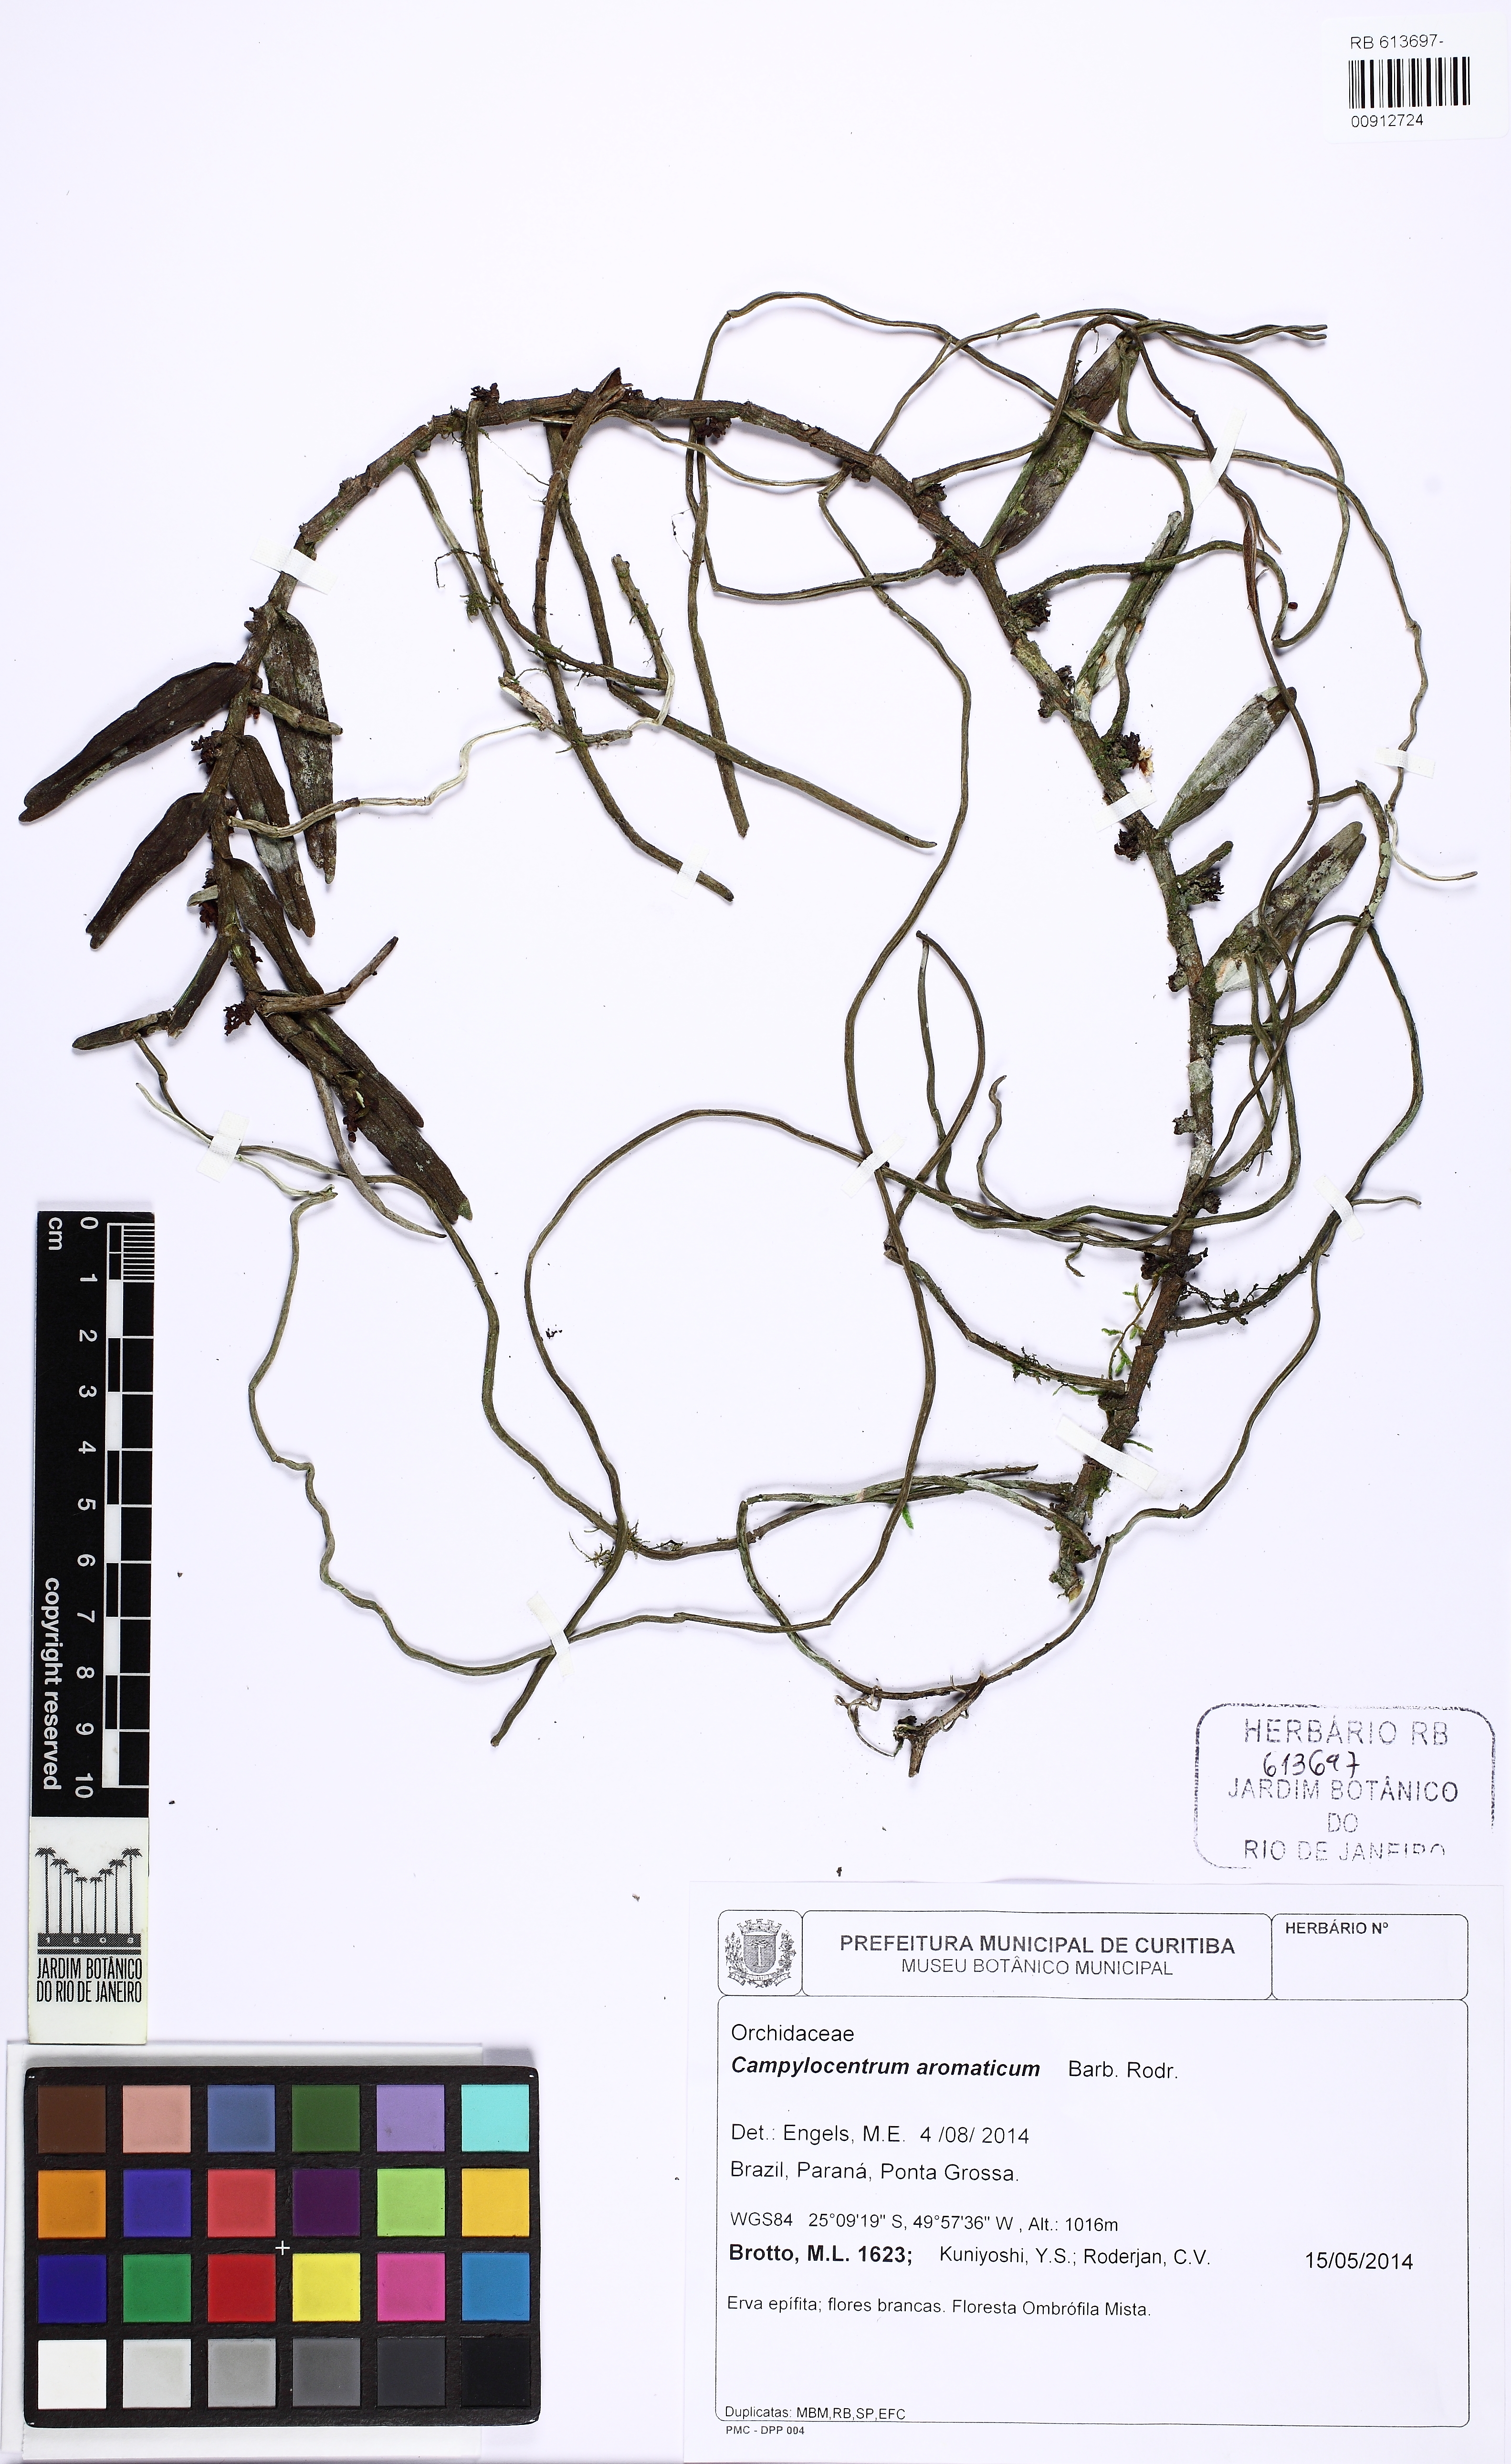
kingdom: Plantae
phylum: Tracheophyta
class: Liliopsida
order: Asparagales
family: Orchidaceae
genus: Campylocentrum
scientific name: Campylocentrum aromaticum
